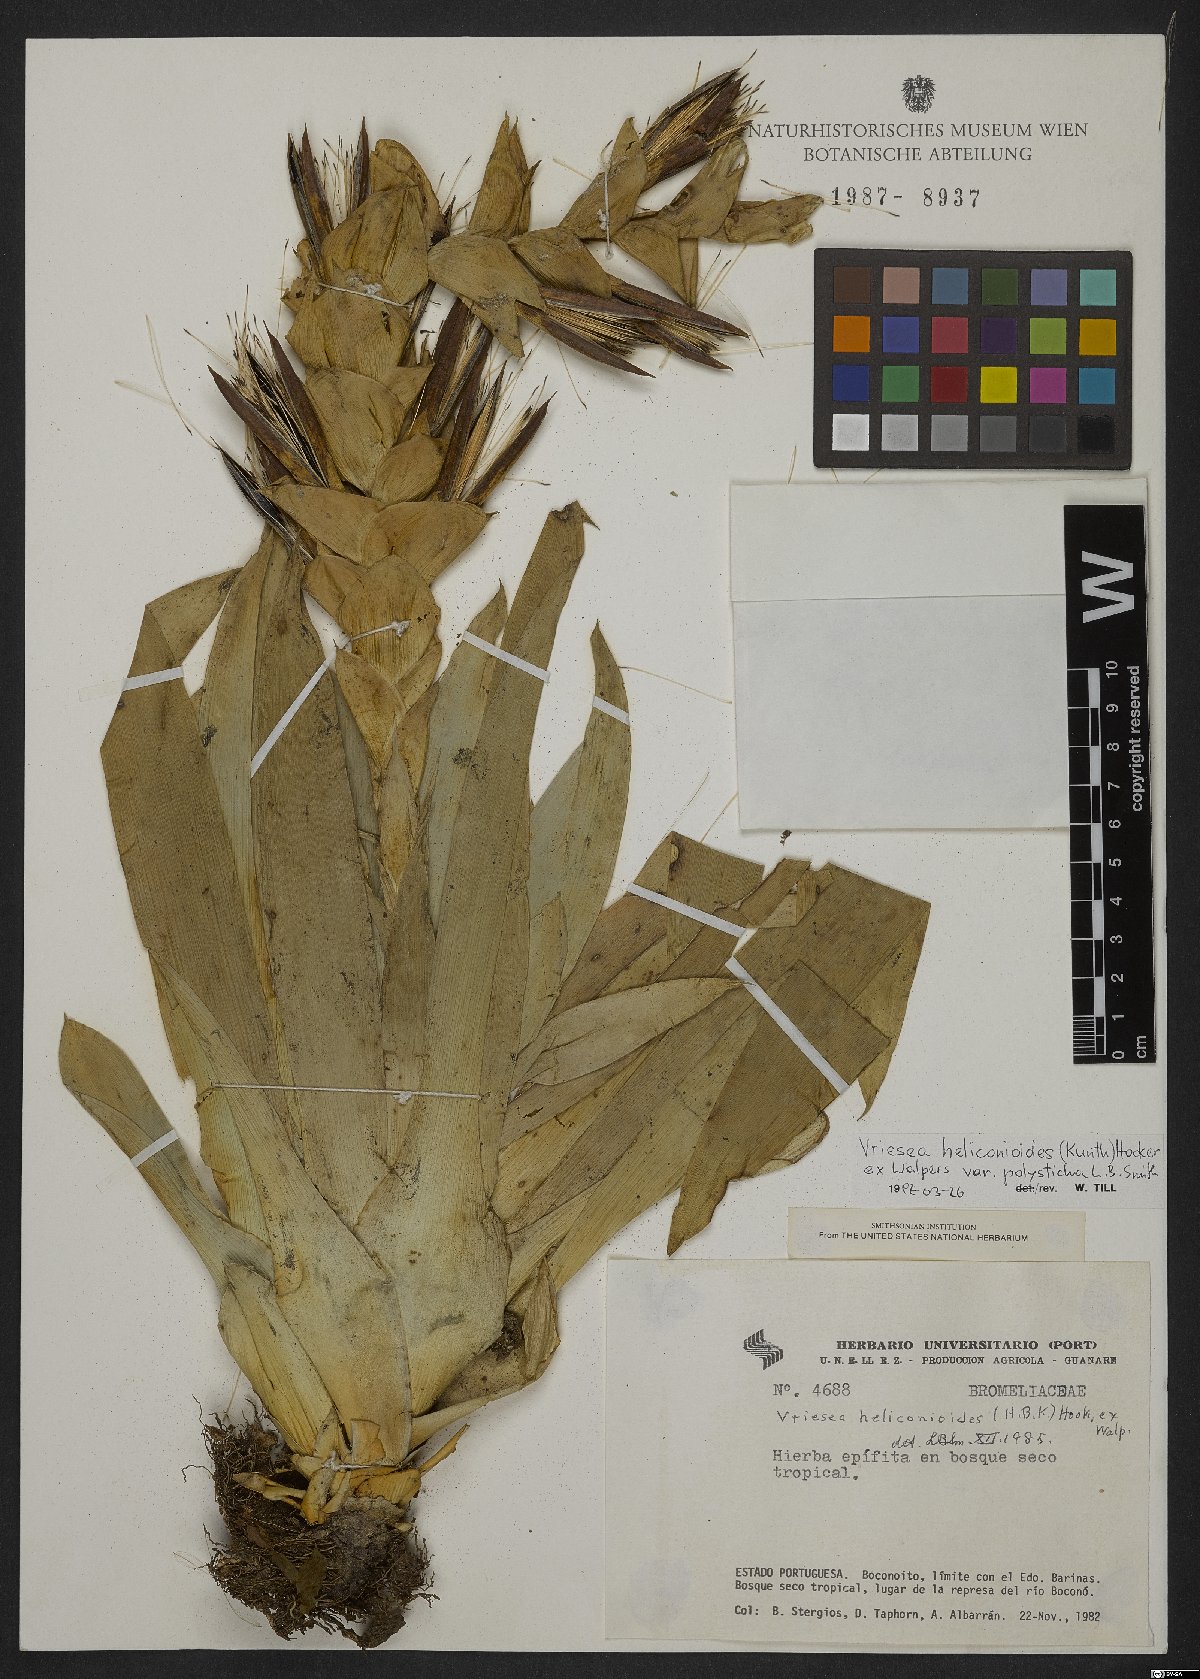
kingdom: Plantae
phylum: Tracheophyta
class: Liliopsida
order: Poales
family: Bromeliaceae
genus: Tillandsia
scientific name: Tillandsia heliconioides
